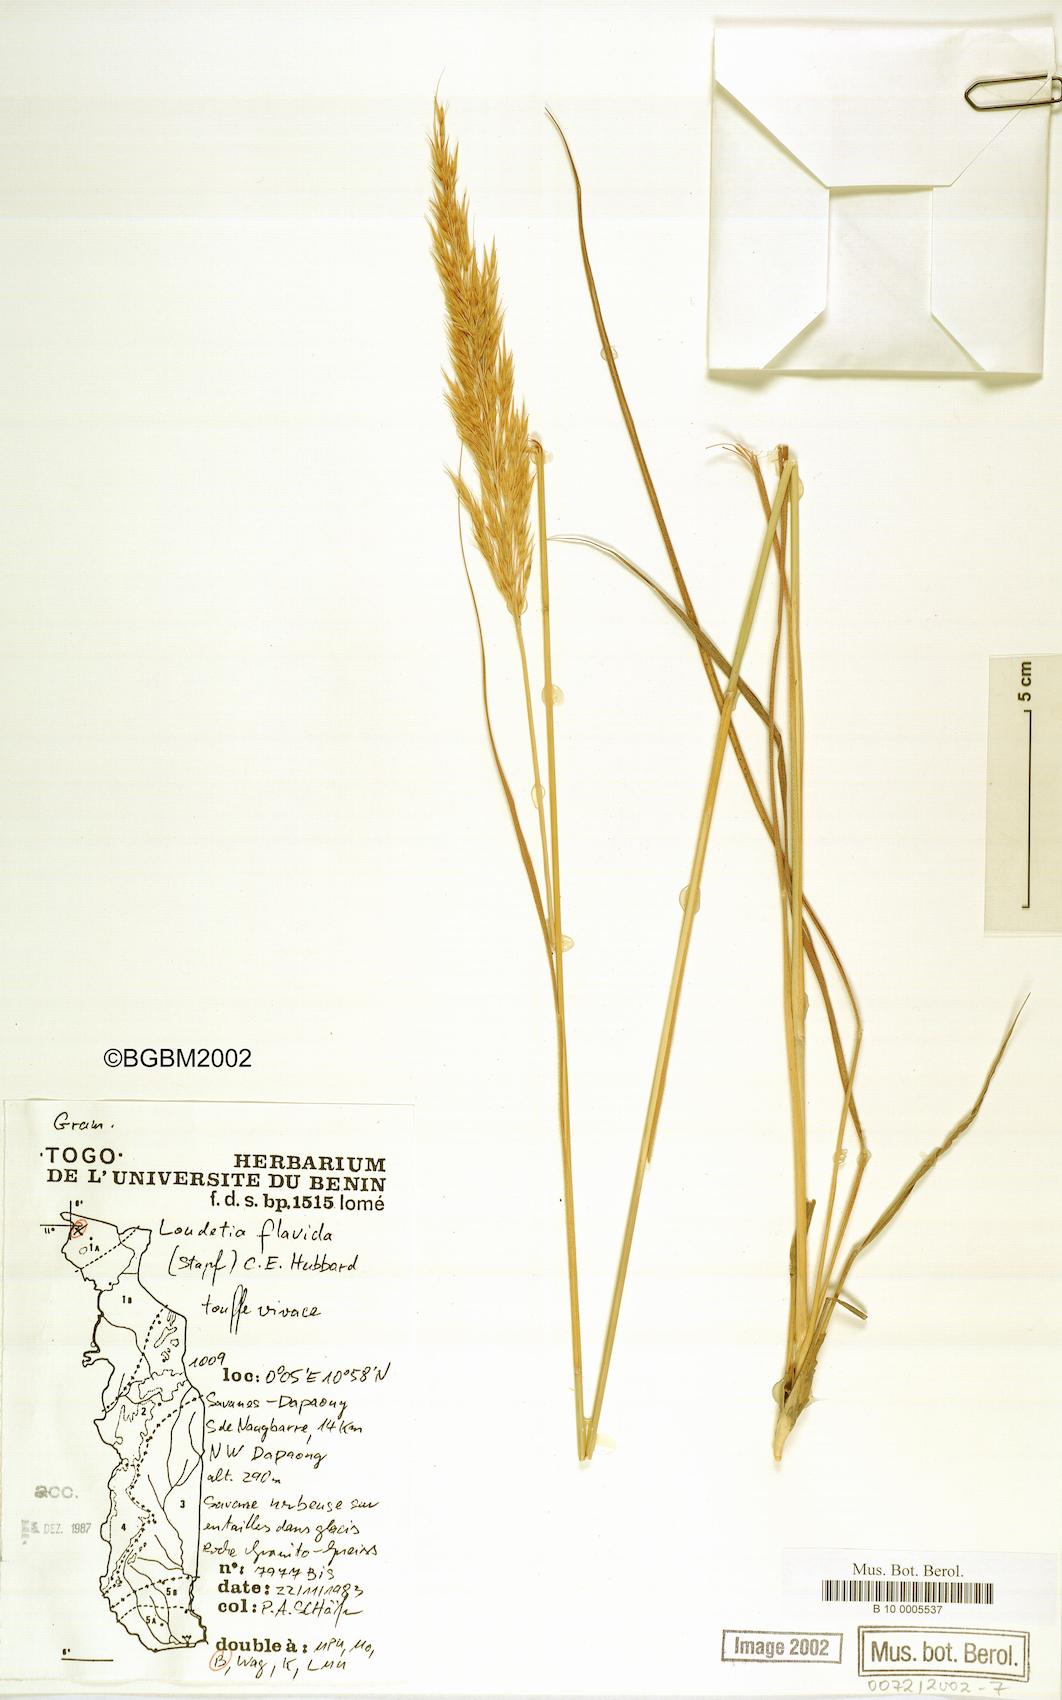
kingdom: Plantae
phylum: Tracheophyta
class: Liliopsida
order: Poales
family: Poaceae
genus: Loudetia
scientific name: Loudetia flavida
